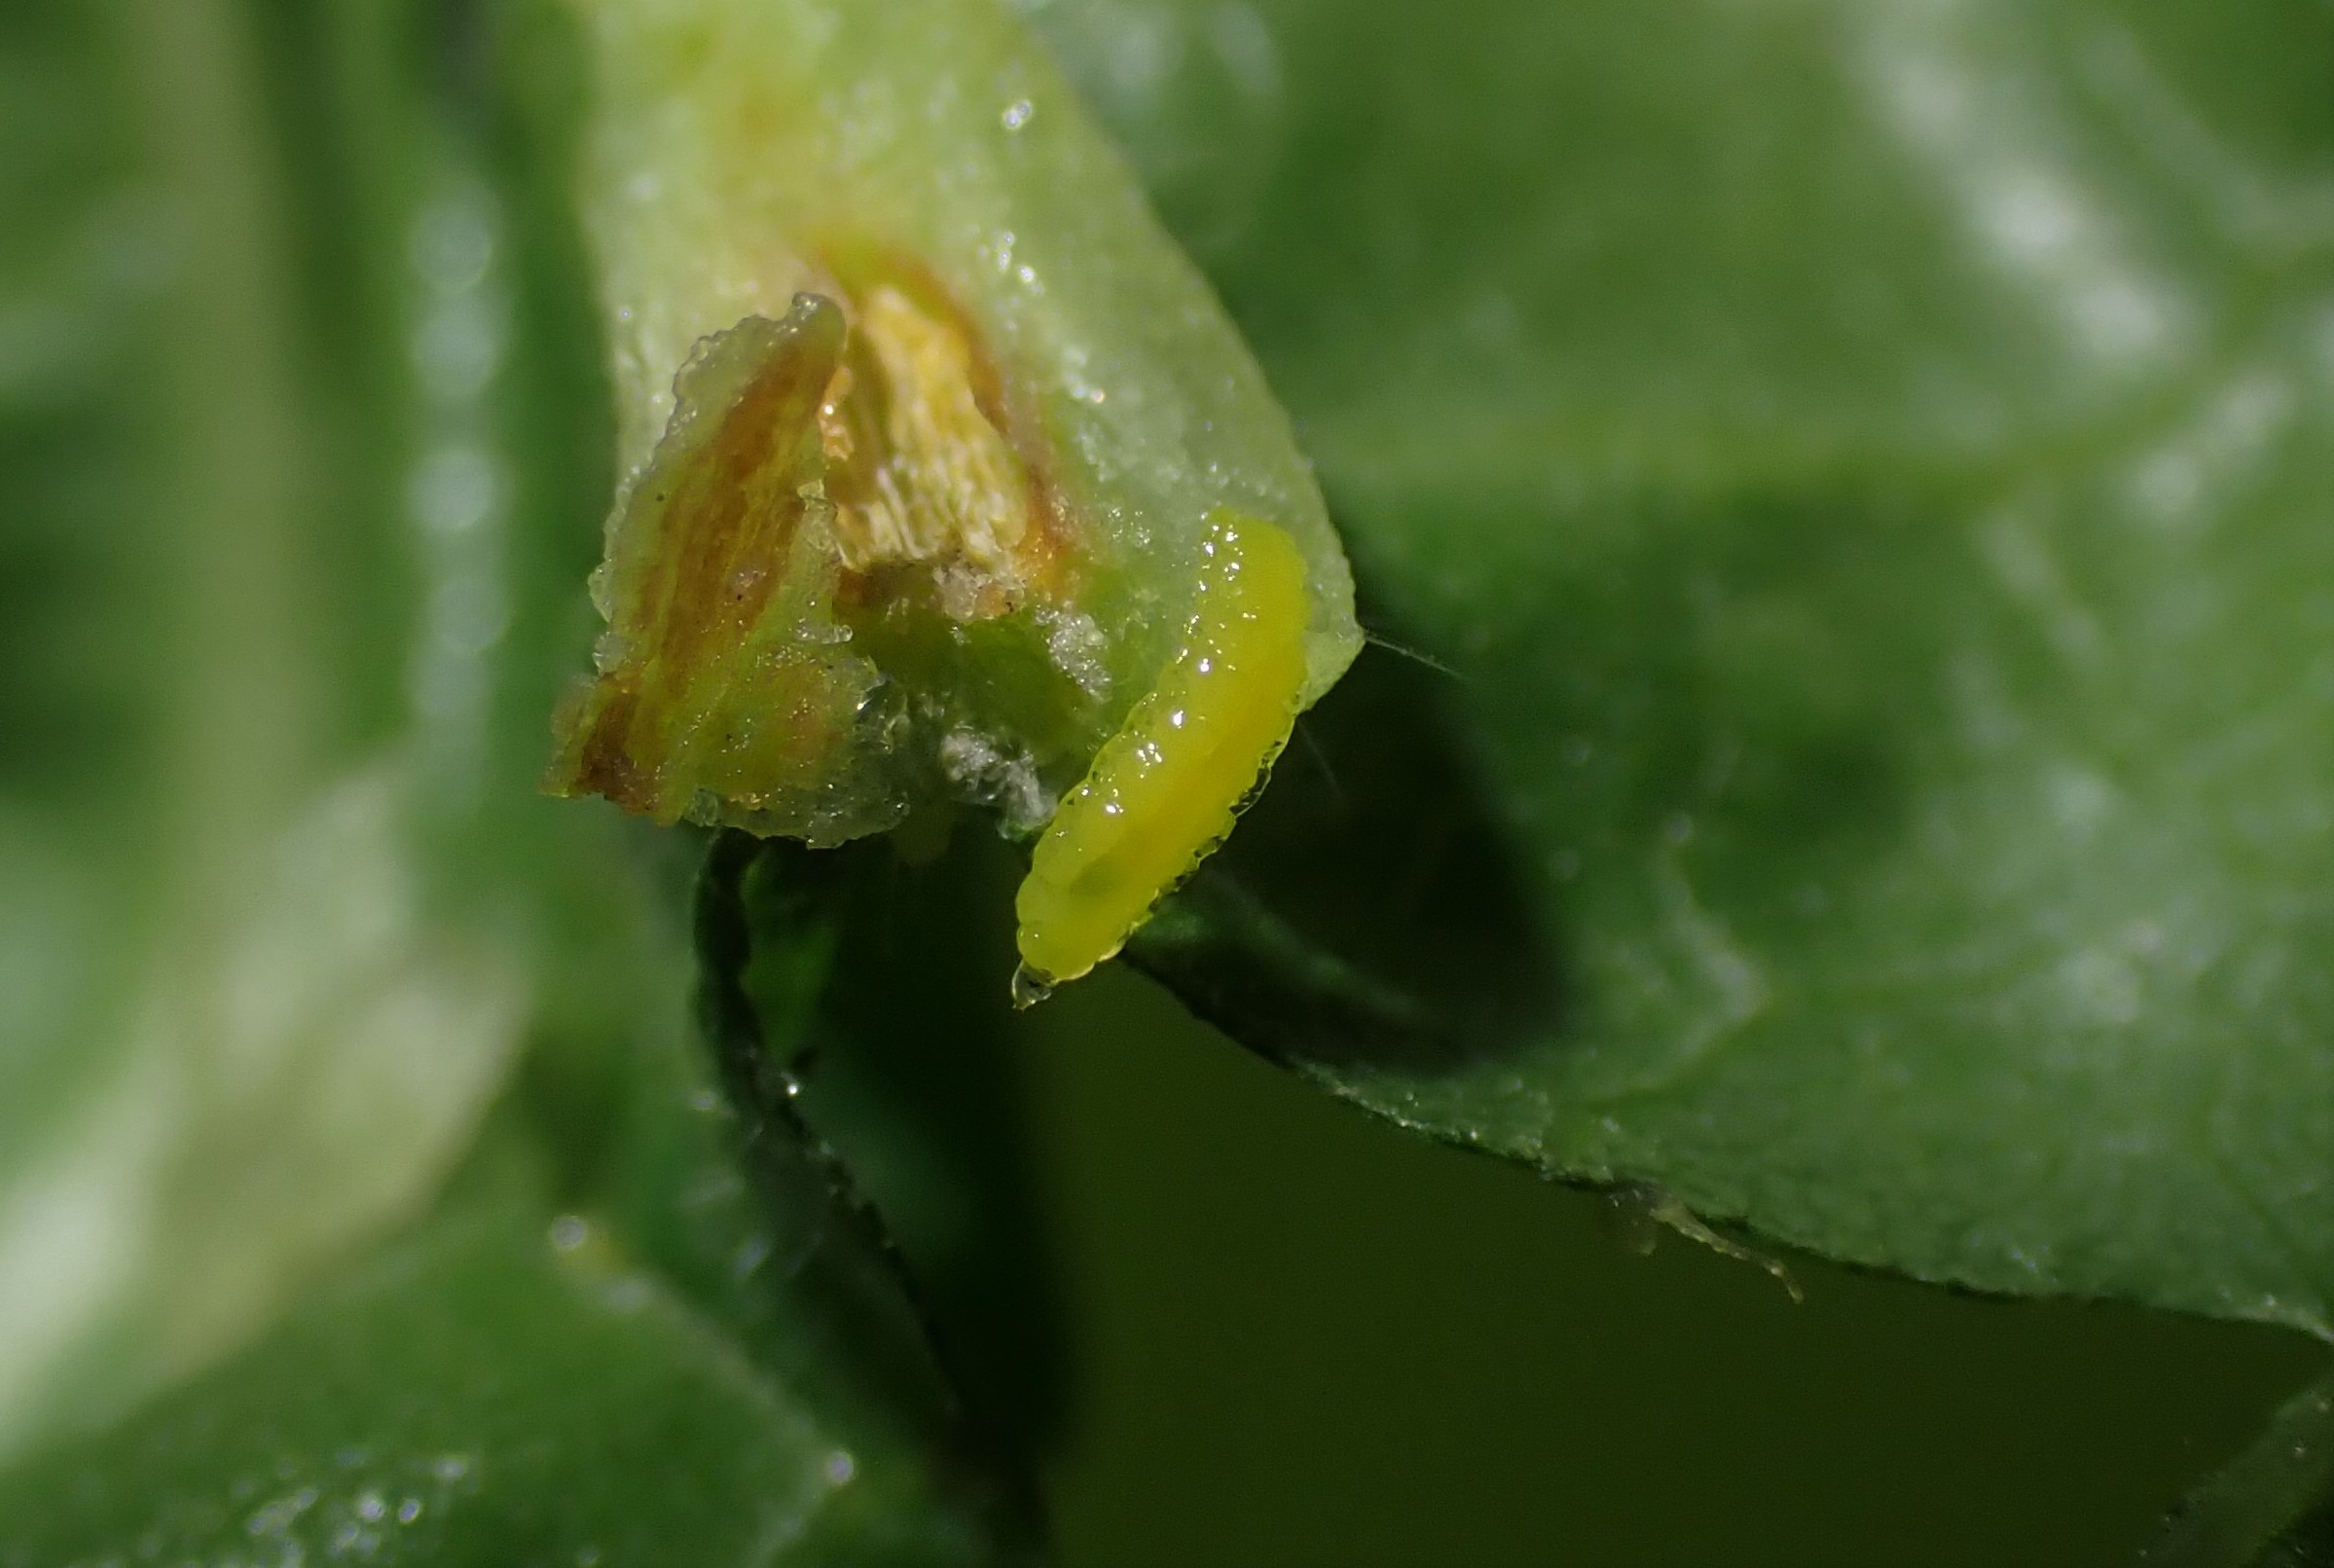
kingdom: Animalia
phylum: Arthropoda
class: Insecta
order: Diptera
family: Cecidomyiidae
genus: Dasineura
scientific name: Dasineura thomasiana
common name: Lindekrusegalmyg
